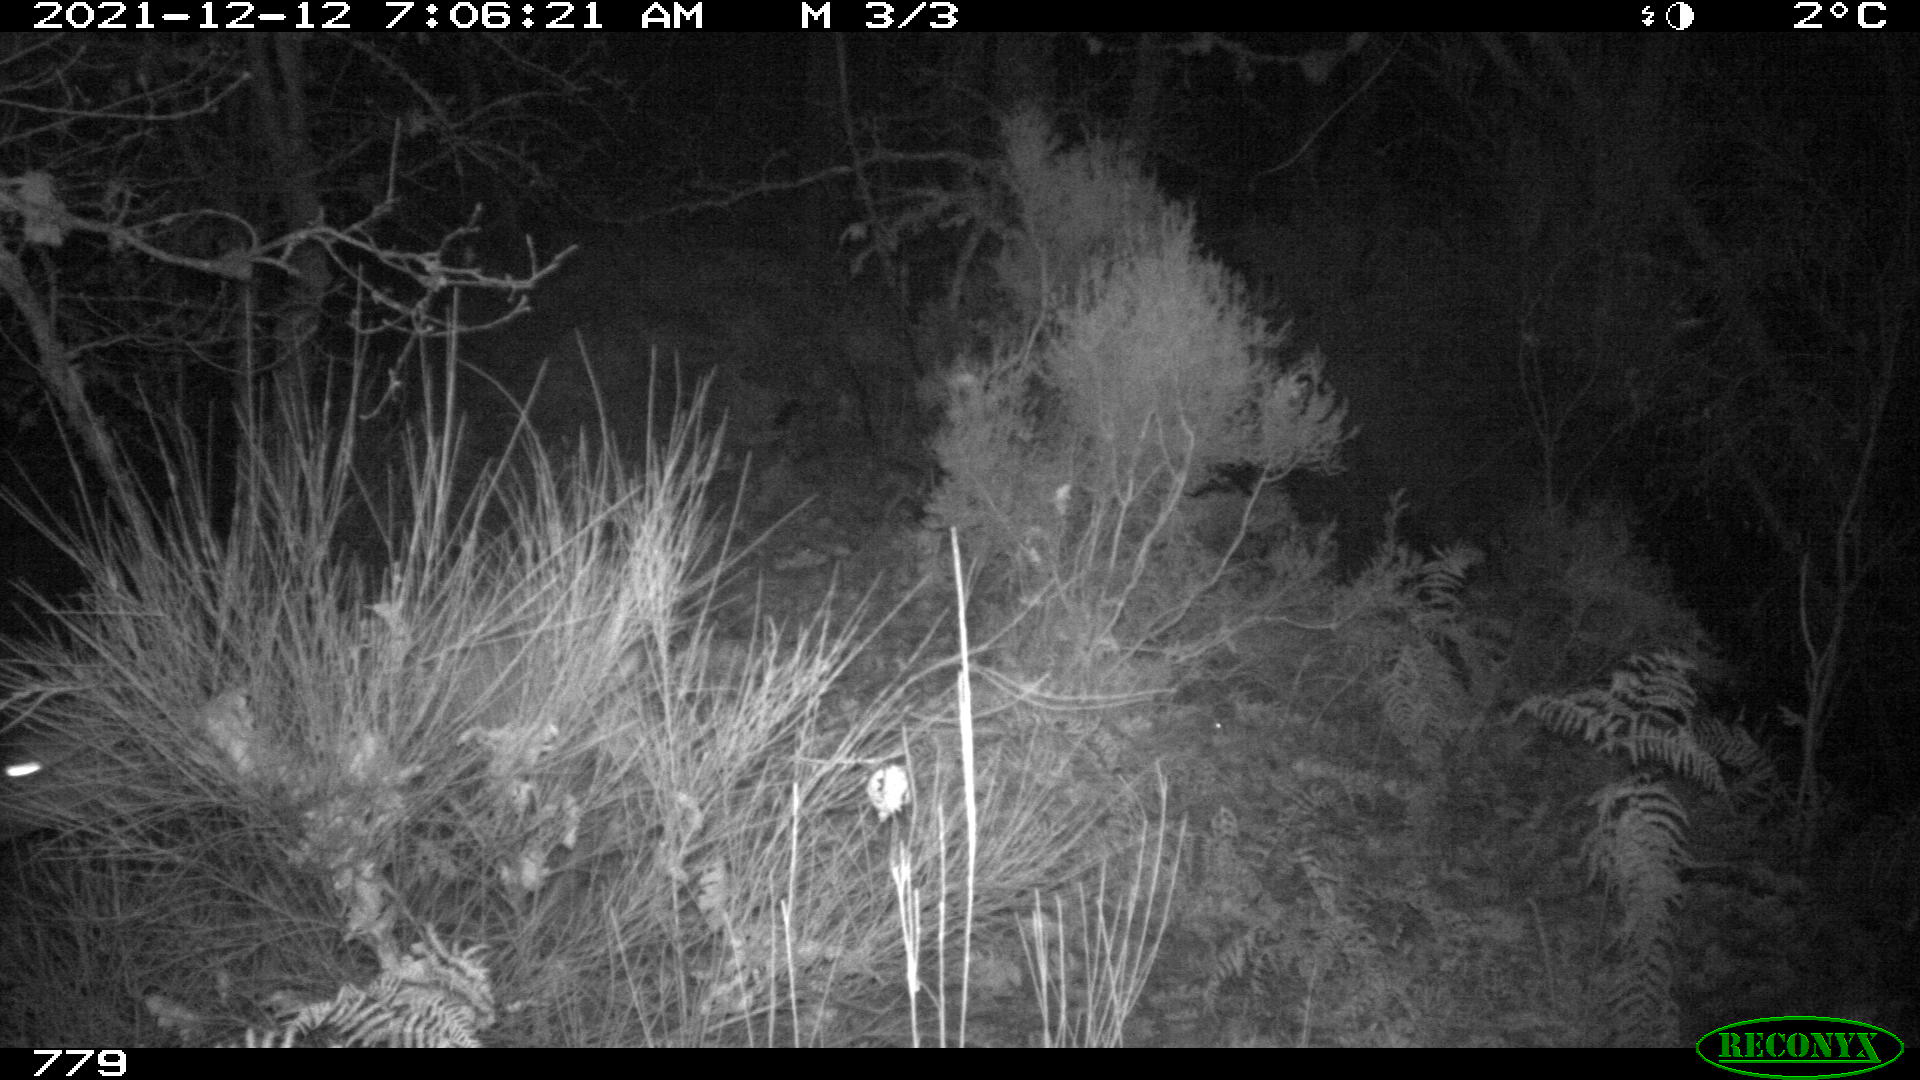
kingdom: Animalia
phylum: Chordata
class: Mammalia
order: Artiodactyla
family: Cervidae
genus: Capreolus
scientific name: Capreolus capreolus
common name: Western roe deer
